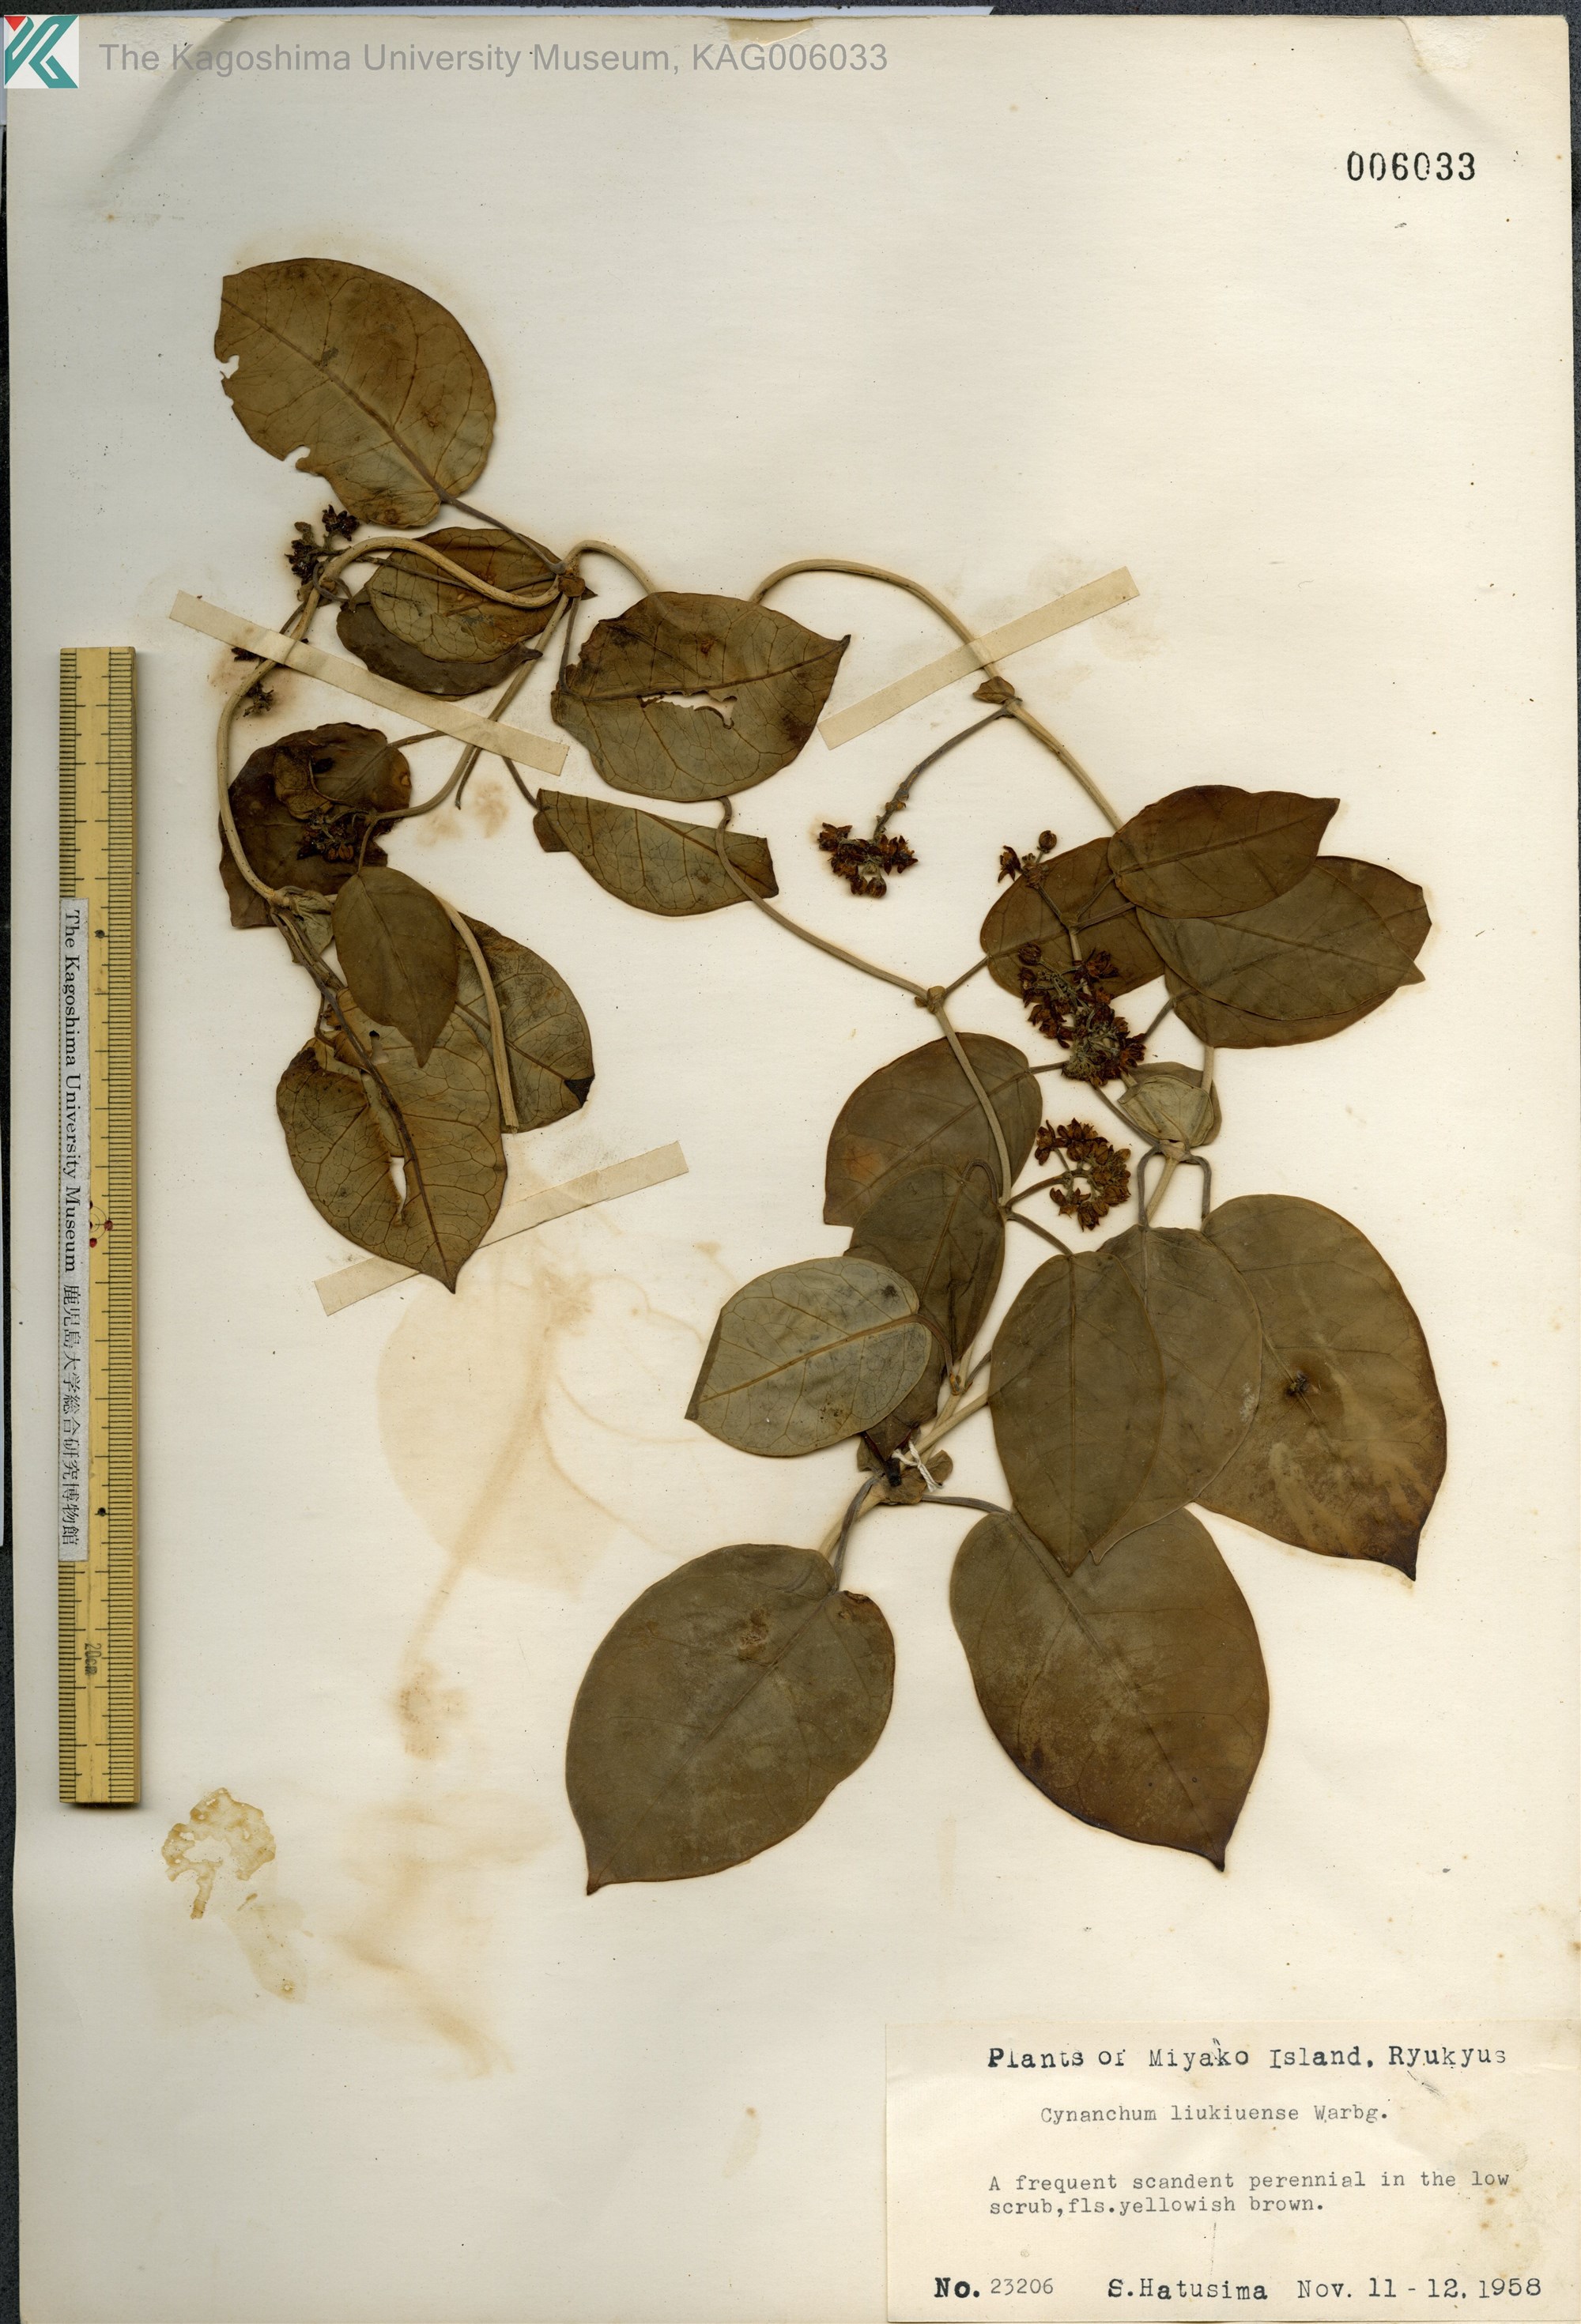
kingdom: Plantae
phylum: Tracheophyta
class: Magnoliopsida
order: Gentianales
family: Apocynaceae
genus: Cynanchum
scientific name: Cynanchum liukiuense
